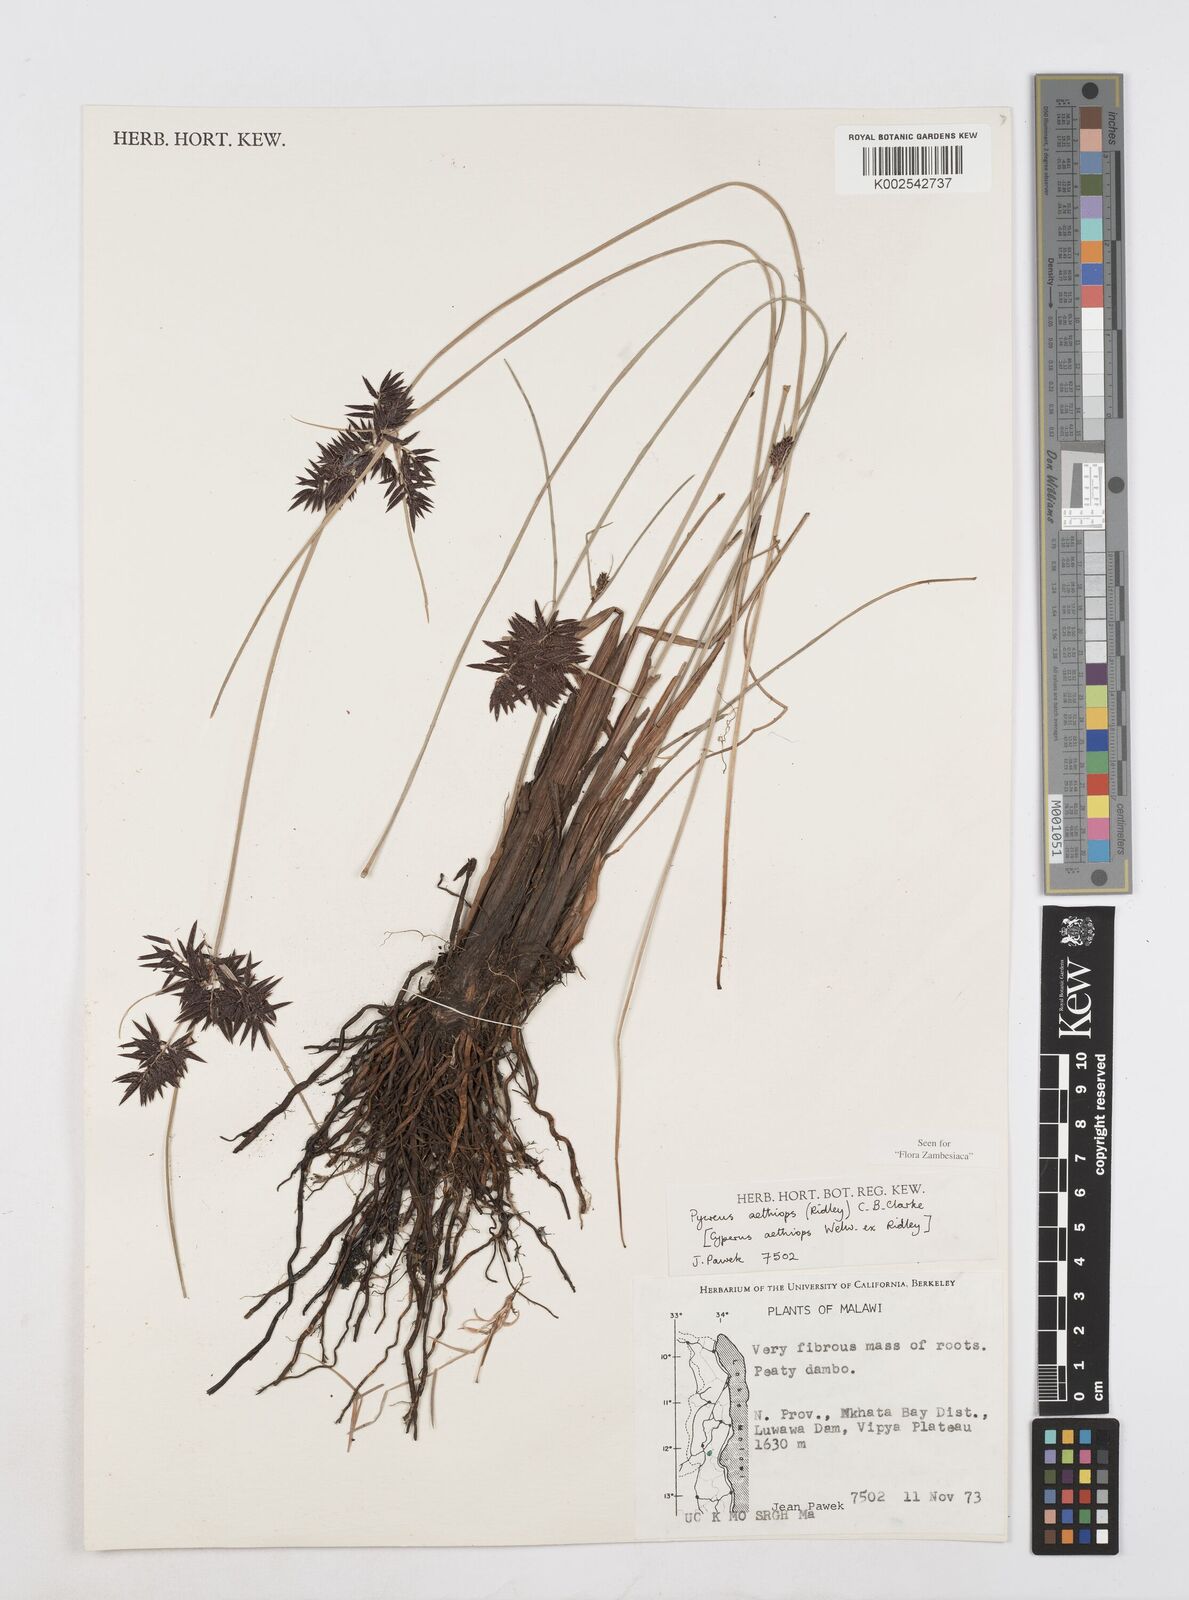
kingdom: Plantae
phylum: Tracheophyta
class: Liliopsida
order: Poales
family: Cyperaceae
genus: Cyperus
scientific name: Cyperus aethiops
